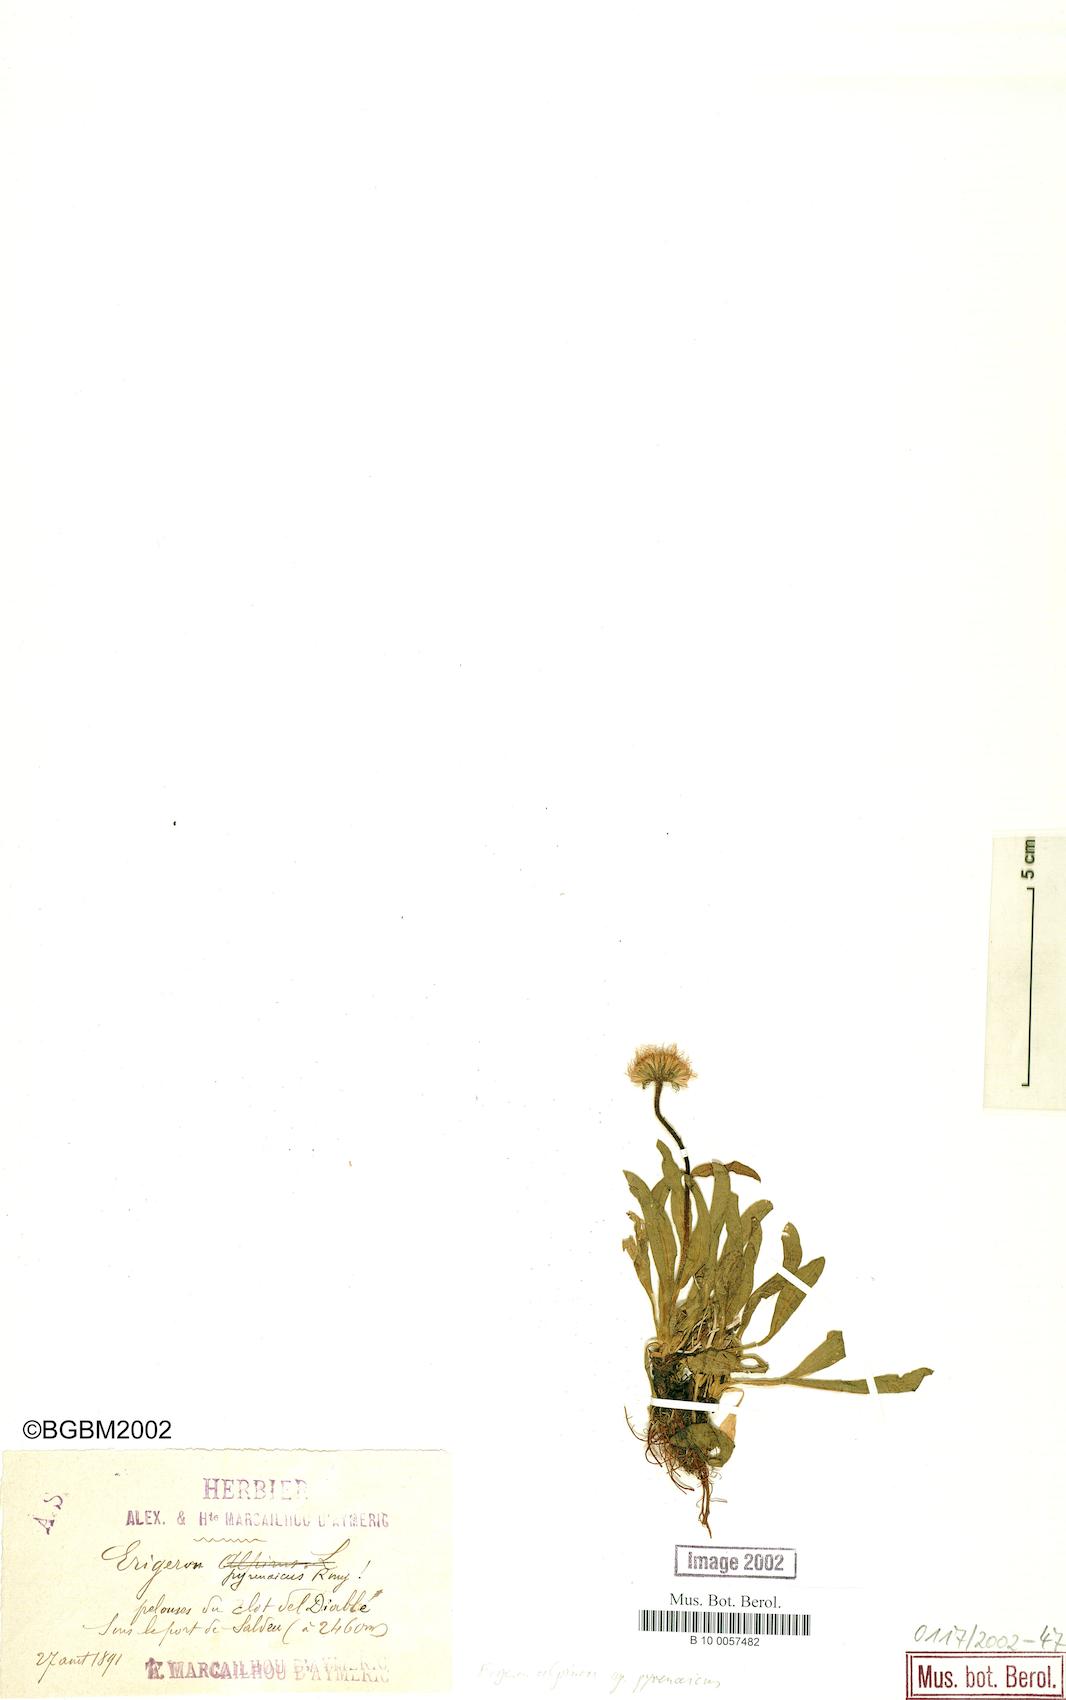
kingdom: Plantae
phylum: Tracheophyta
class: Magnoliopsida
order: Asterales
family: Asteraceae
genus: Erigeron
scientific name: Erigeron uniflorus
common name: Northern daisy
